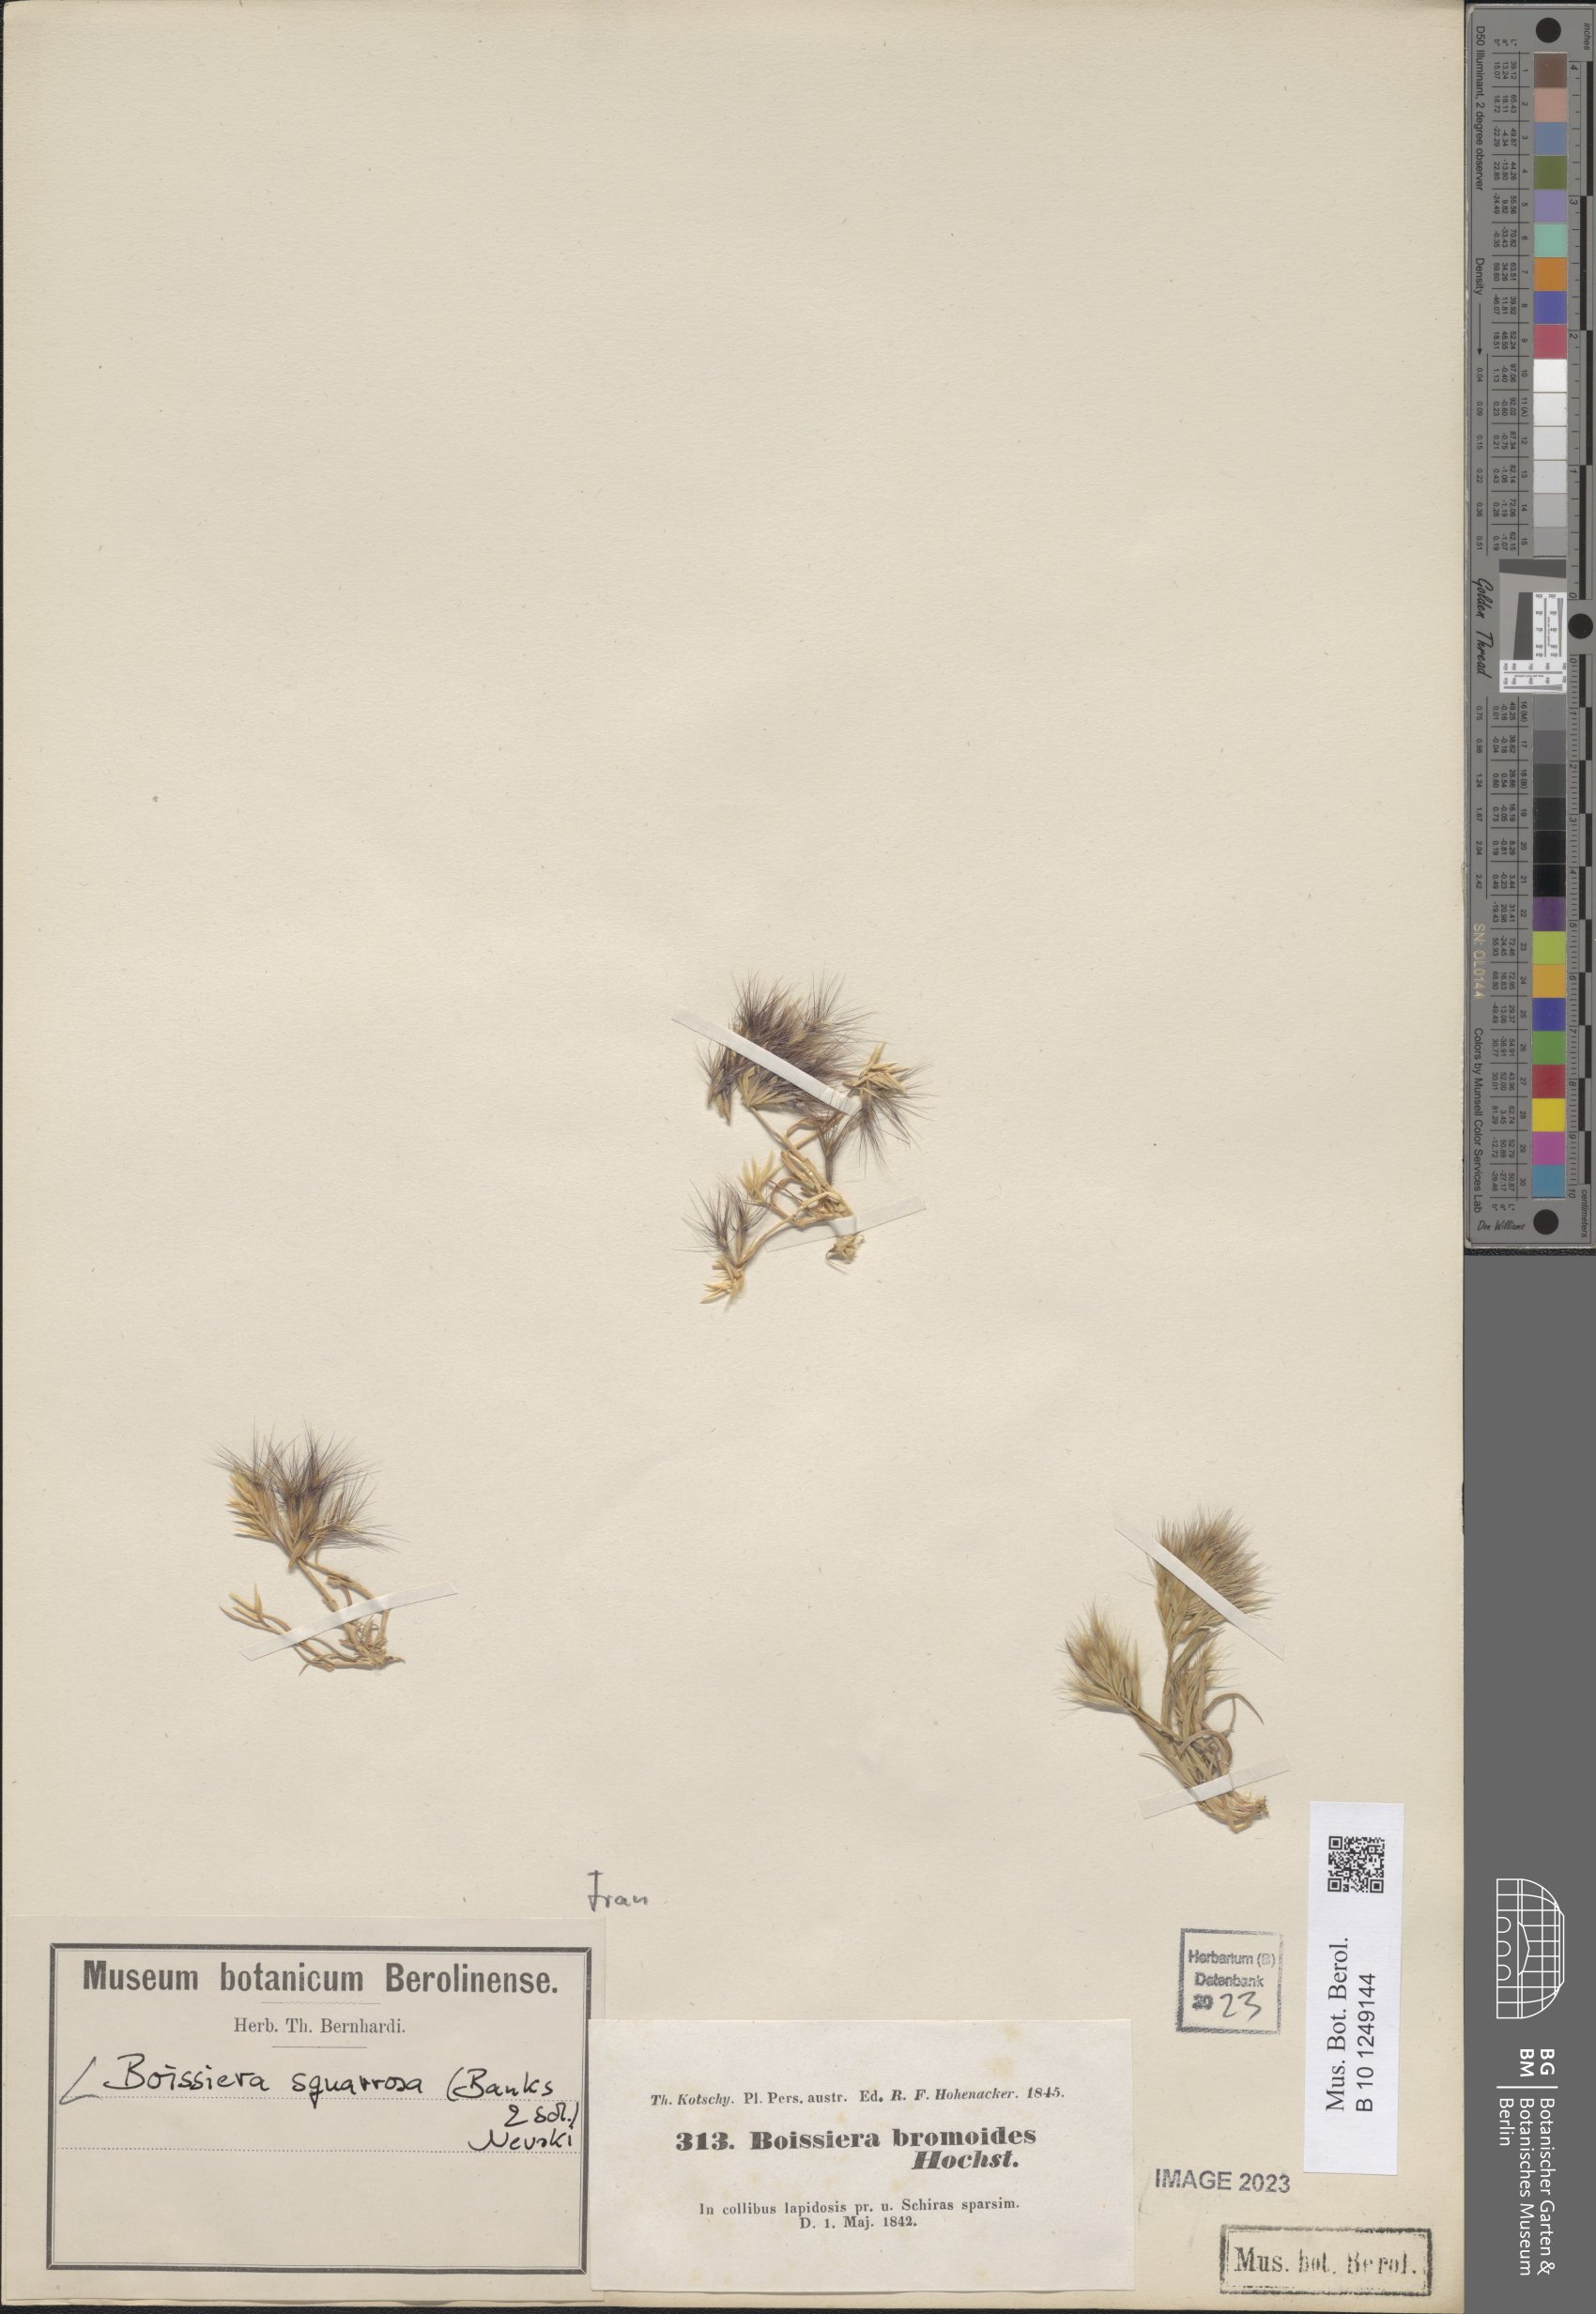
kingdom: Plantae
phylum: Tracheophyta
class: Liliopsida
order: Poales
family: Poaceae
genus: Bromus
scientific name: Bromus pumilio
